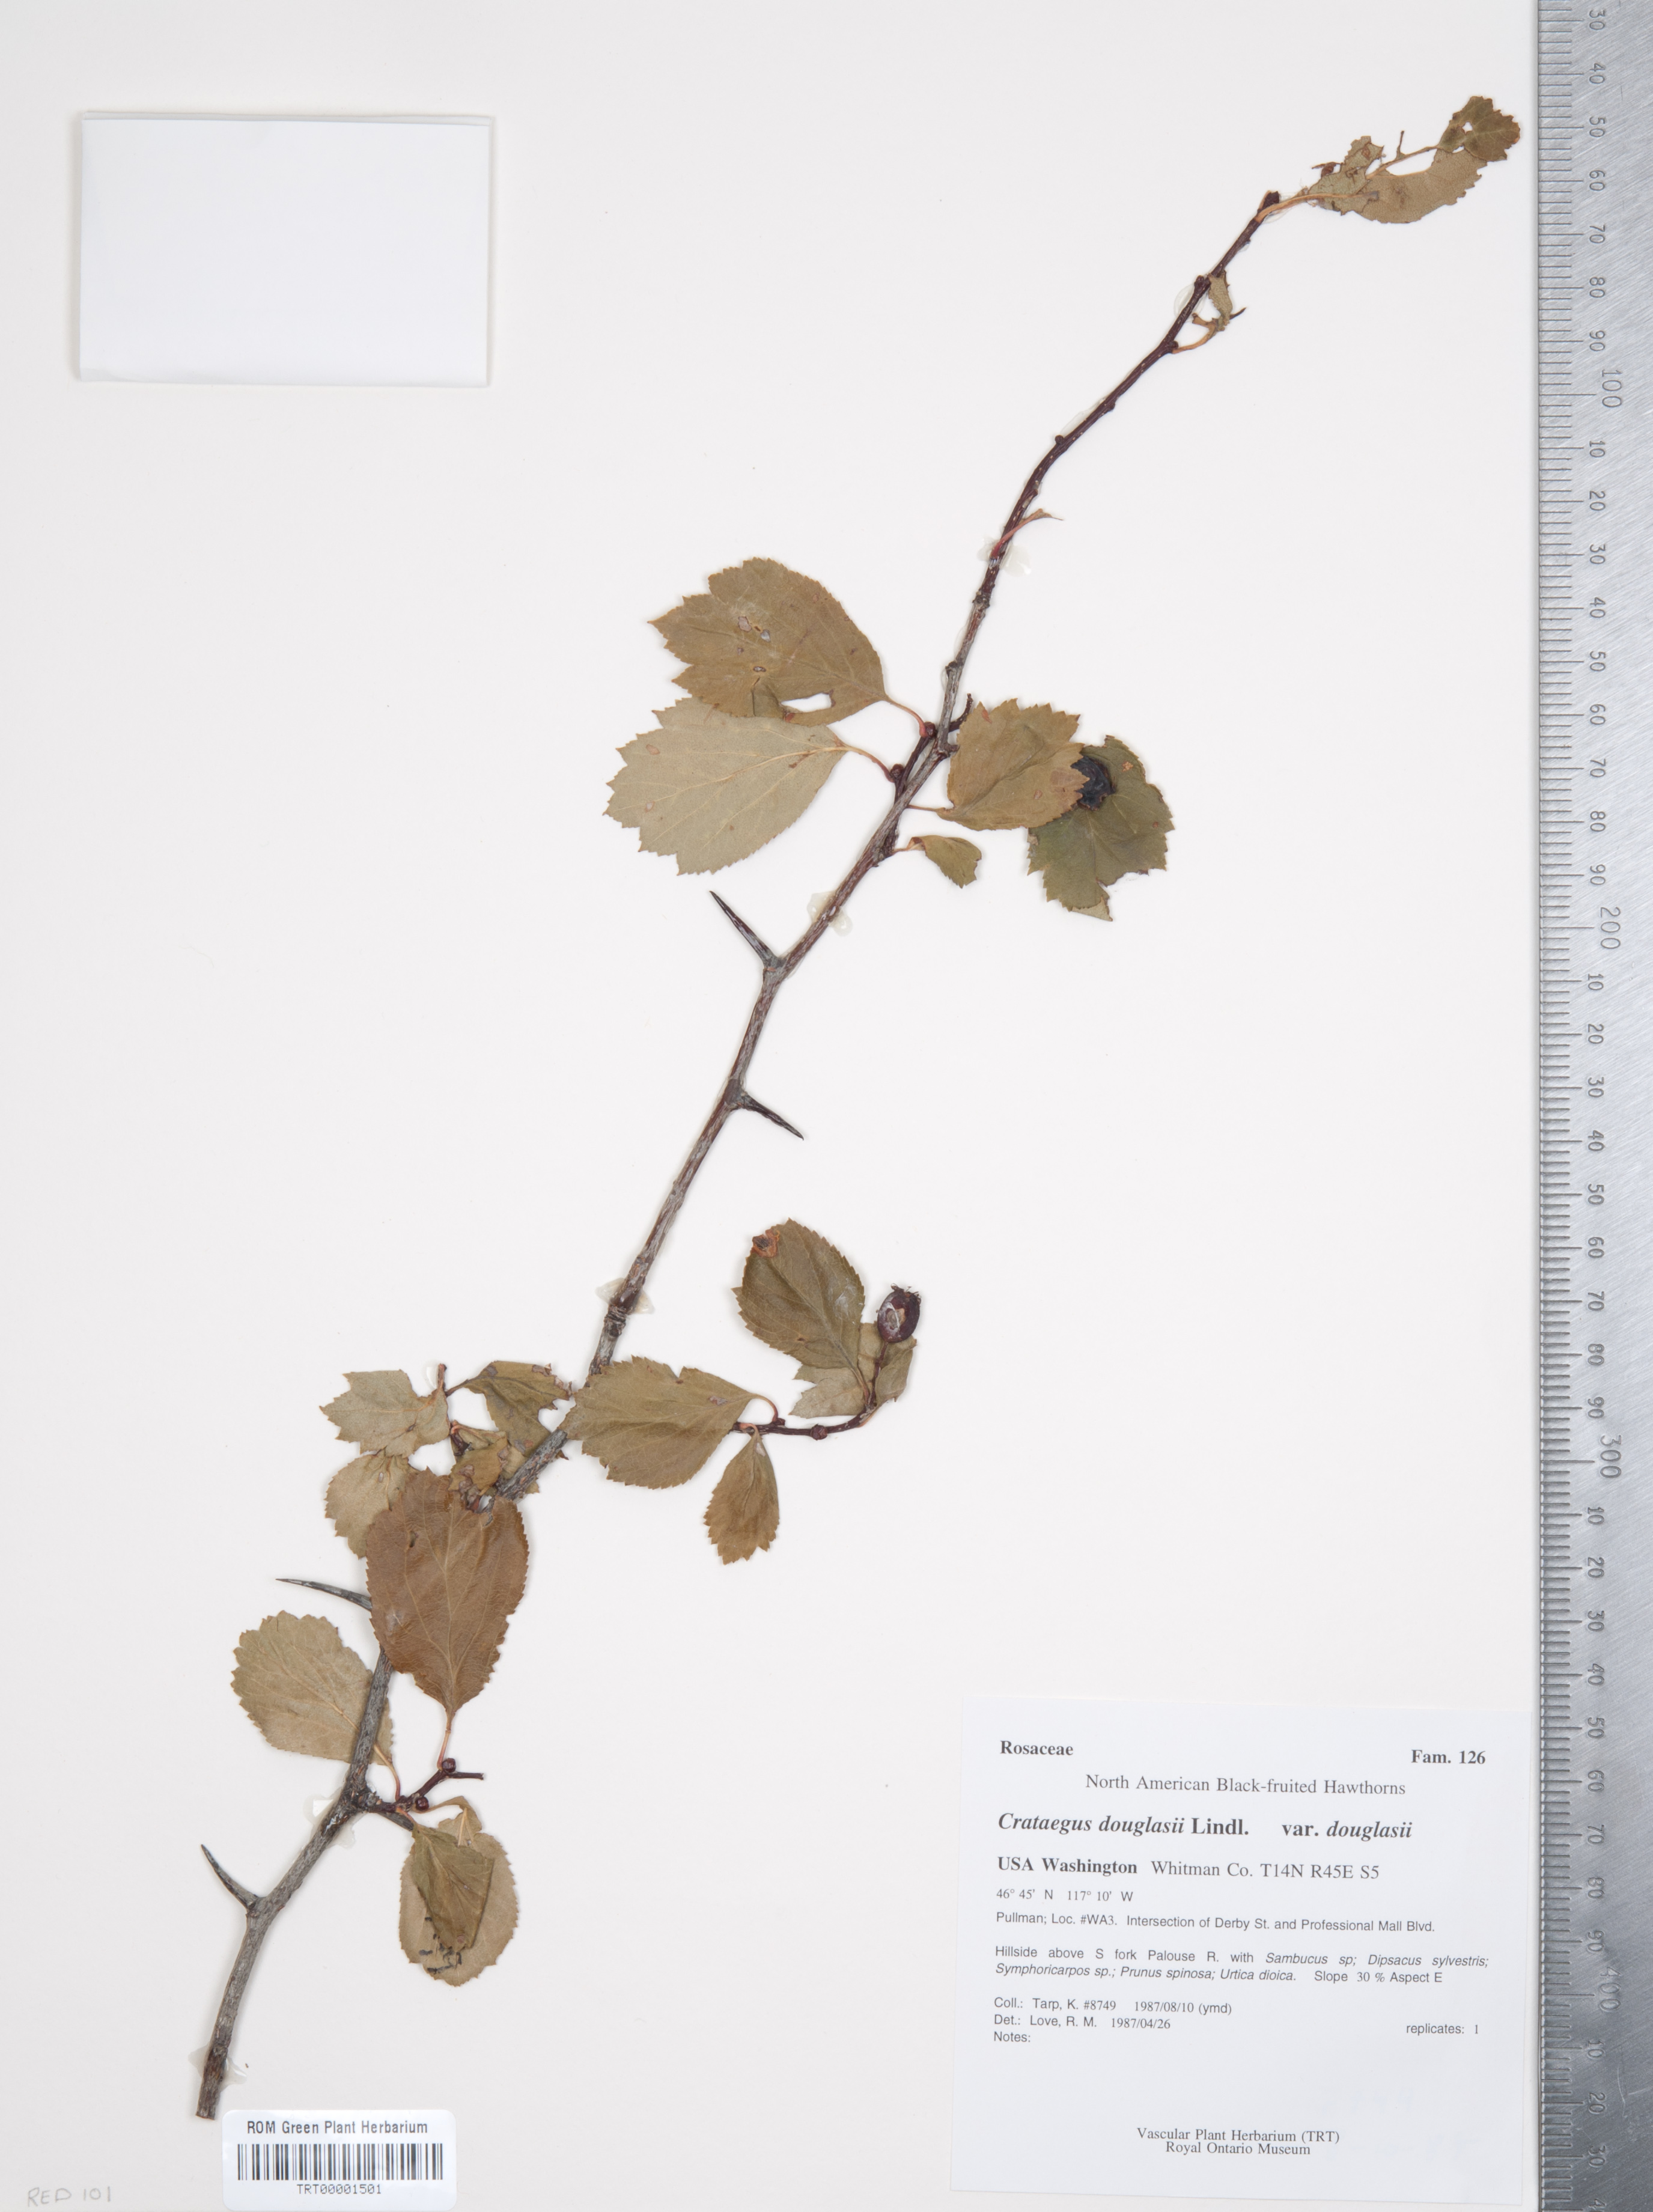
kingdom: Plantae
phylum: Tracheophyta
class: Magnoliopsida
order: Rosales
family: Rosaceae
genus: Crataegus
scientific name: Crataegus douglasii
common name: Black hawthorn
